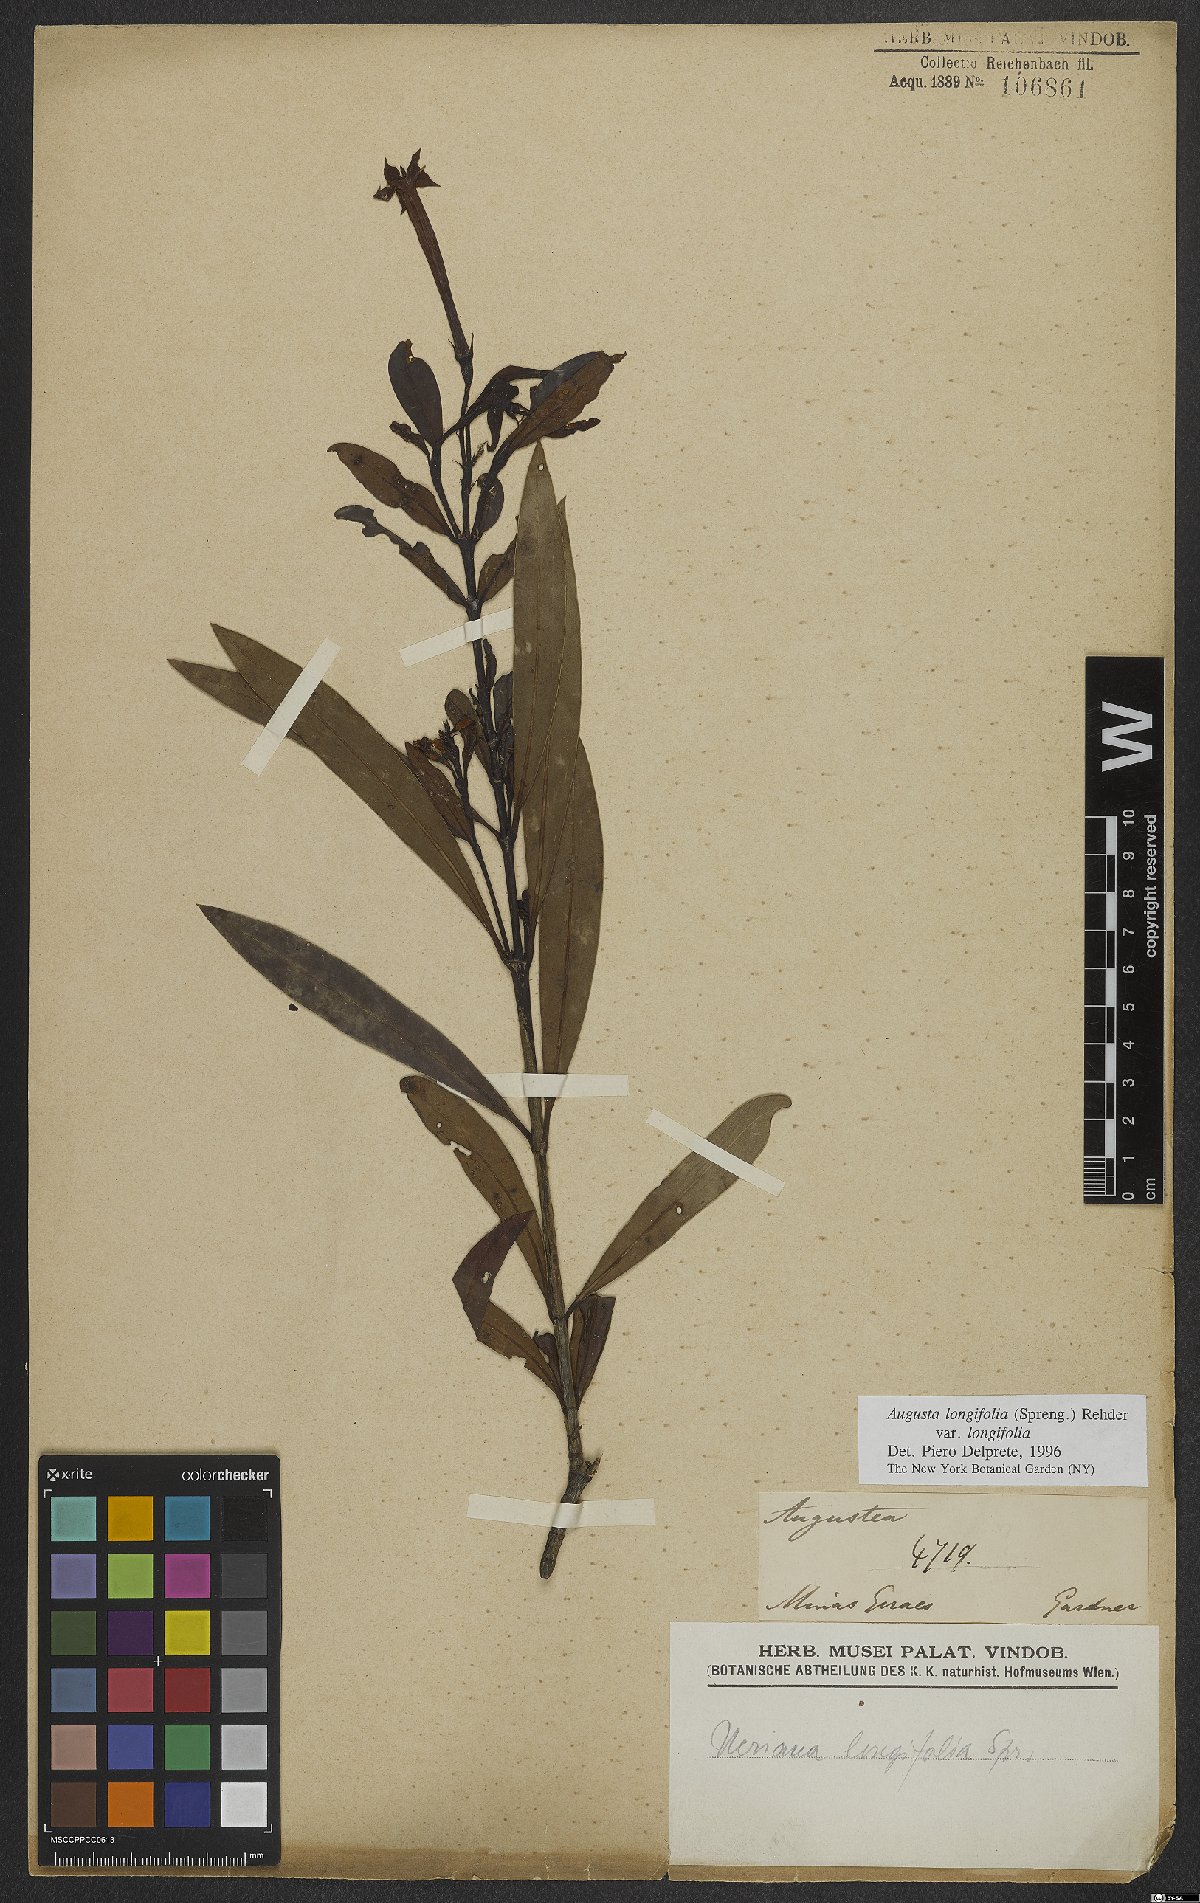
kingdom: Plantae
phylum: Tracheophyta
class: Magnoliopsida
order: Gentianales
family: Rubiaceae
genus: Augusta
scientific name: Augusta longifolia
